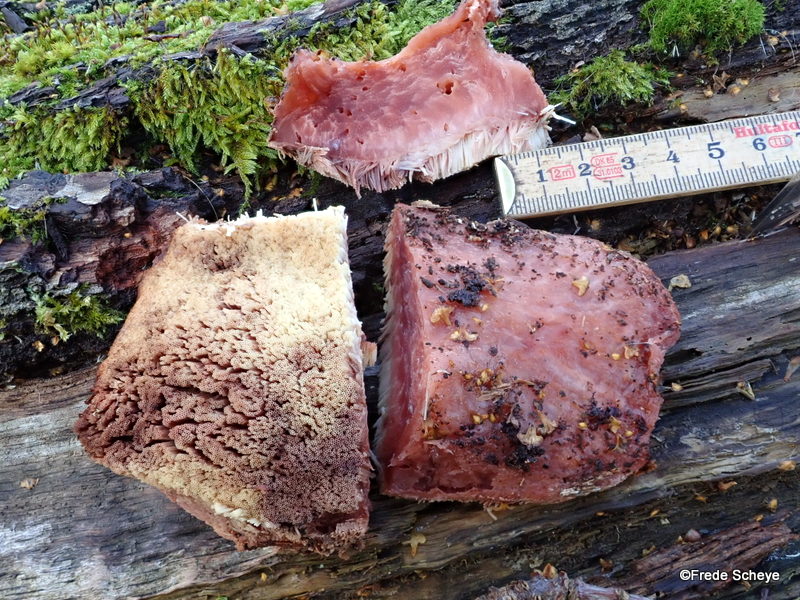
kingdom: Fungi
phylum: Basidiomycota
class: Agaricomycetes
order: Agaricales
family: Fistulinaceae
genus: Fistulina
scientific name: Fistulina hepatica
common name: oksetunge
